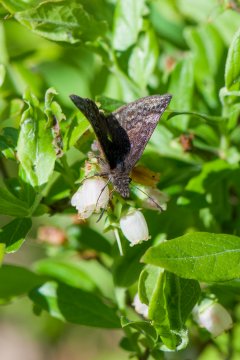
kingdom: Animalia
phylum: Arthropoda
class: Insecta
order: Lepidoptera
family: Hesperiidae
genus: Erynnis
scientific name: Erynnis icelus
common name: Dreamy Duskywing
